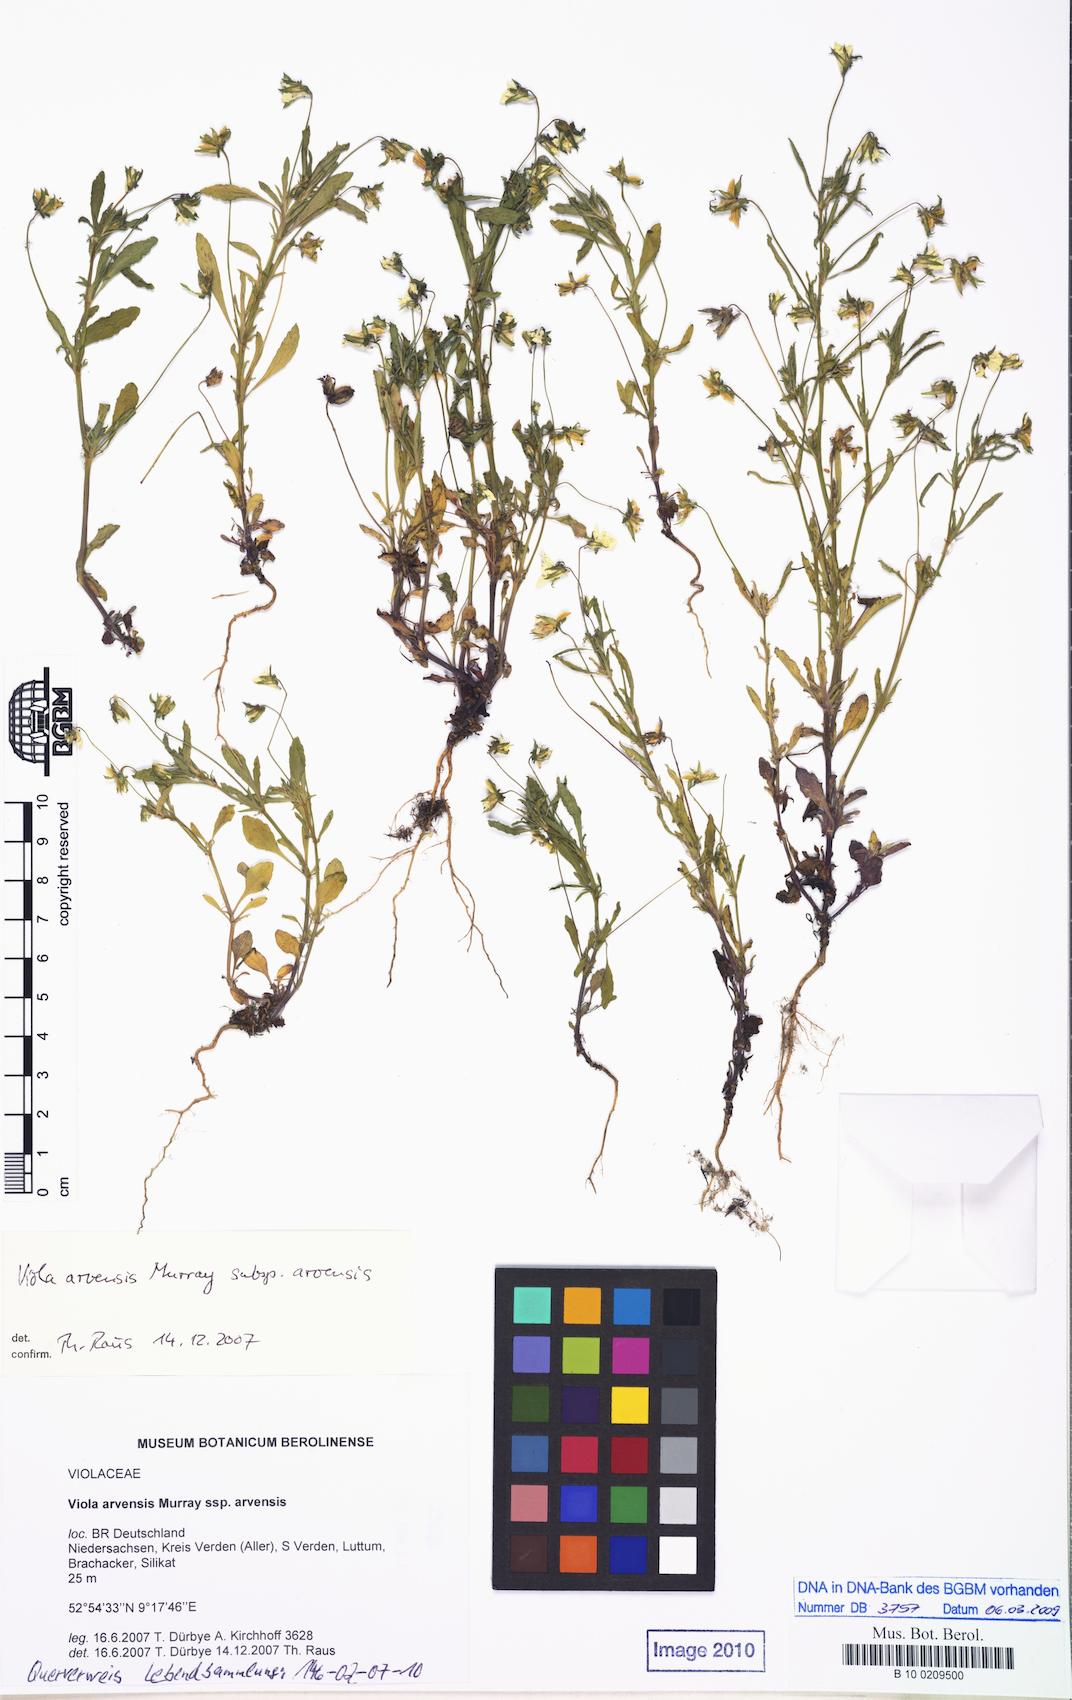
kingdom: Plantae
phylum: Tracheophyta
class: Magnoliopsida
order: Malpighiales
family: Violaceae
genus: Viola
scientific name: Viola arvensis
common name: Field pansy
